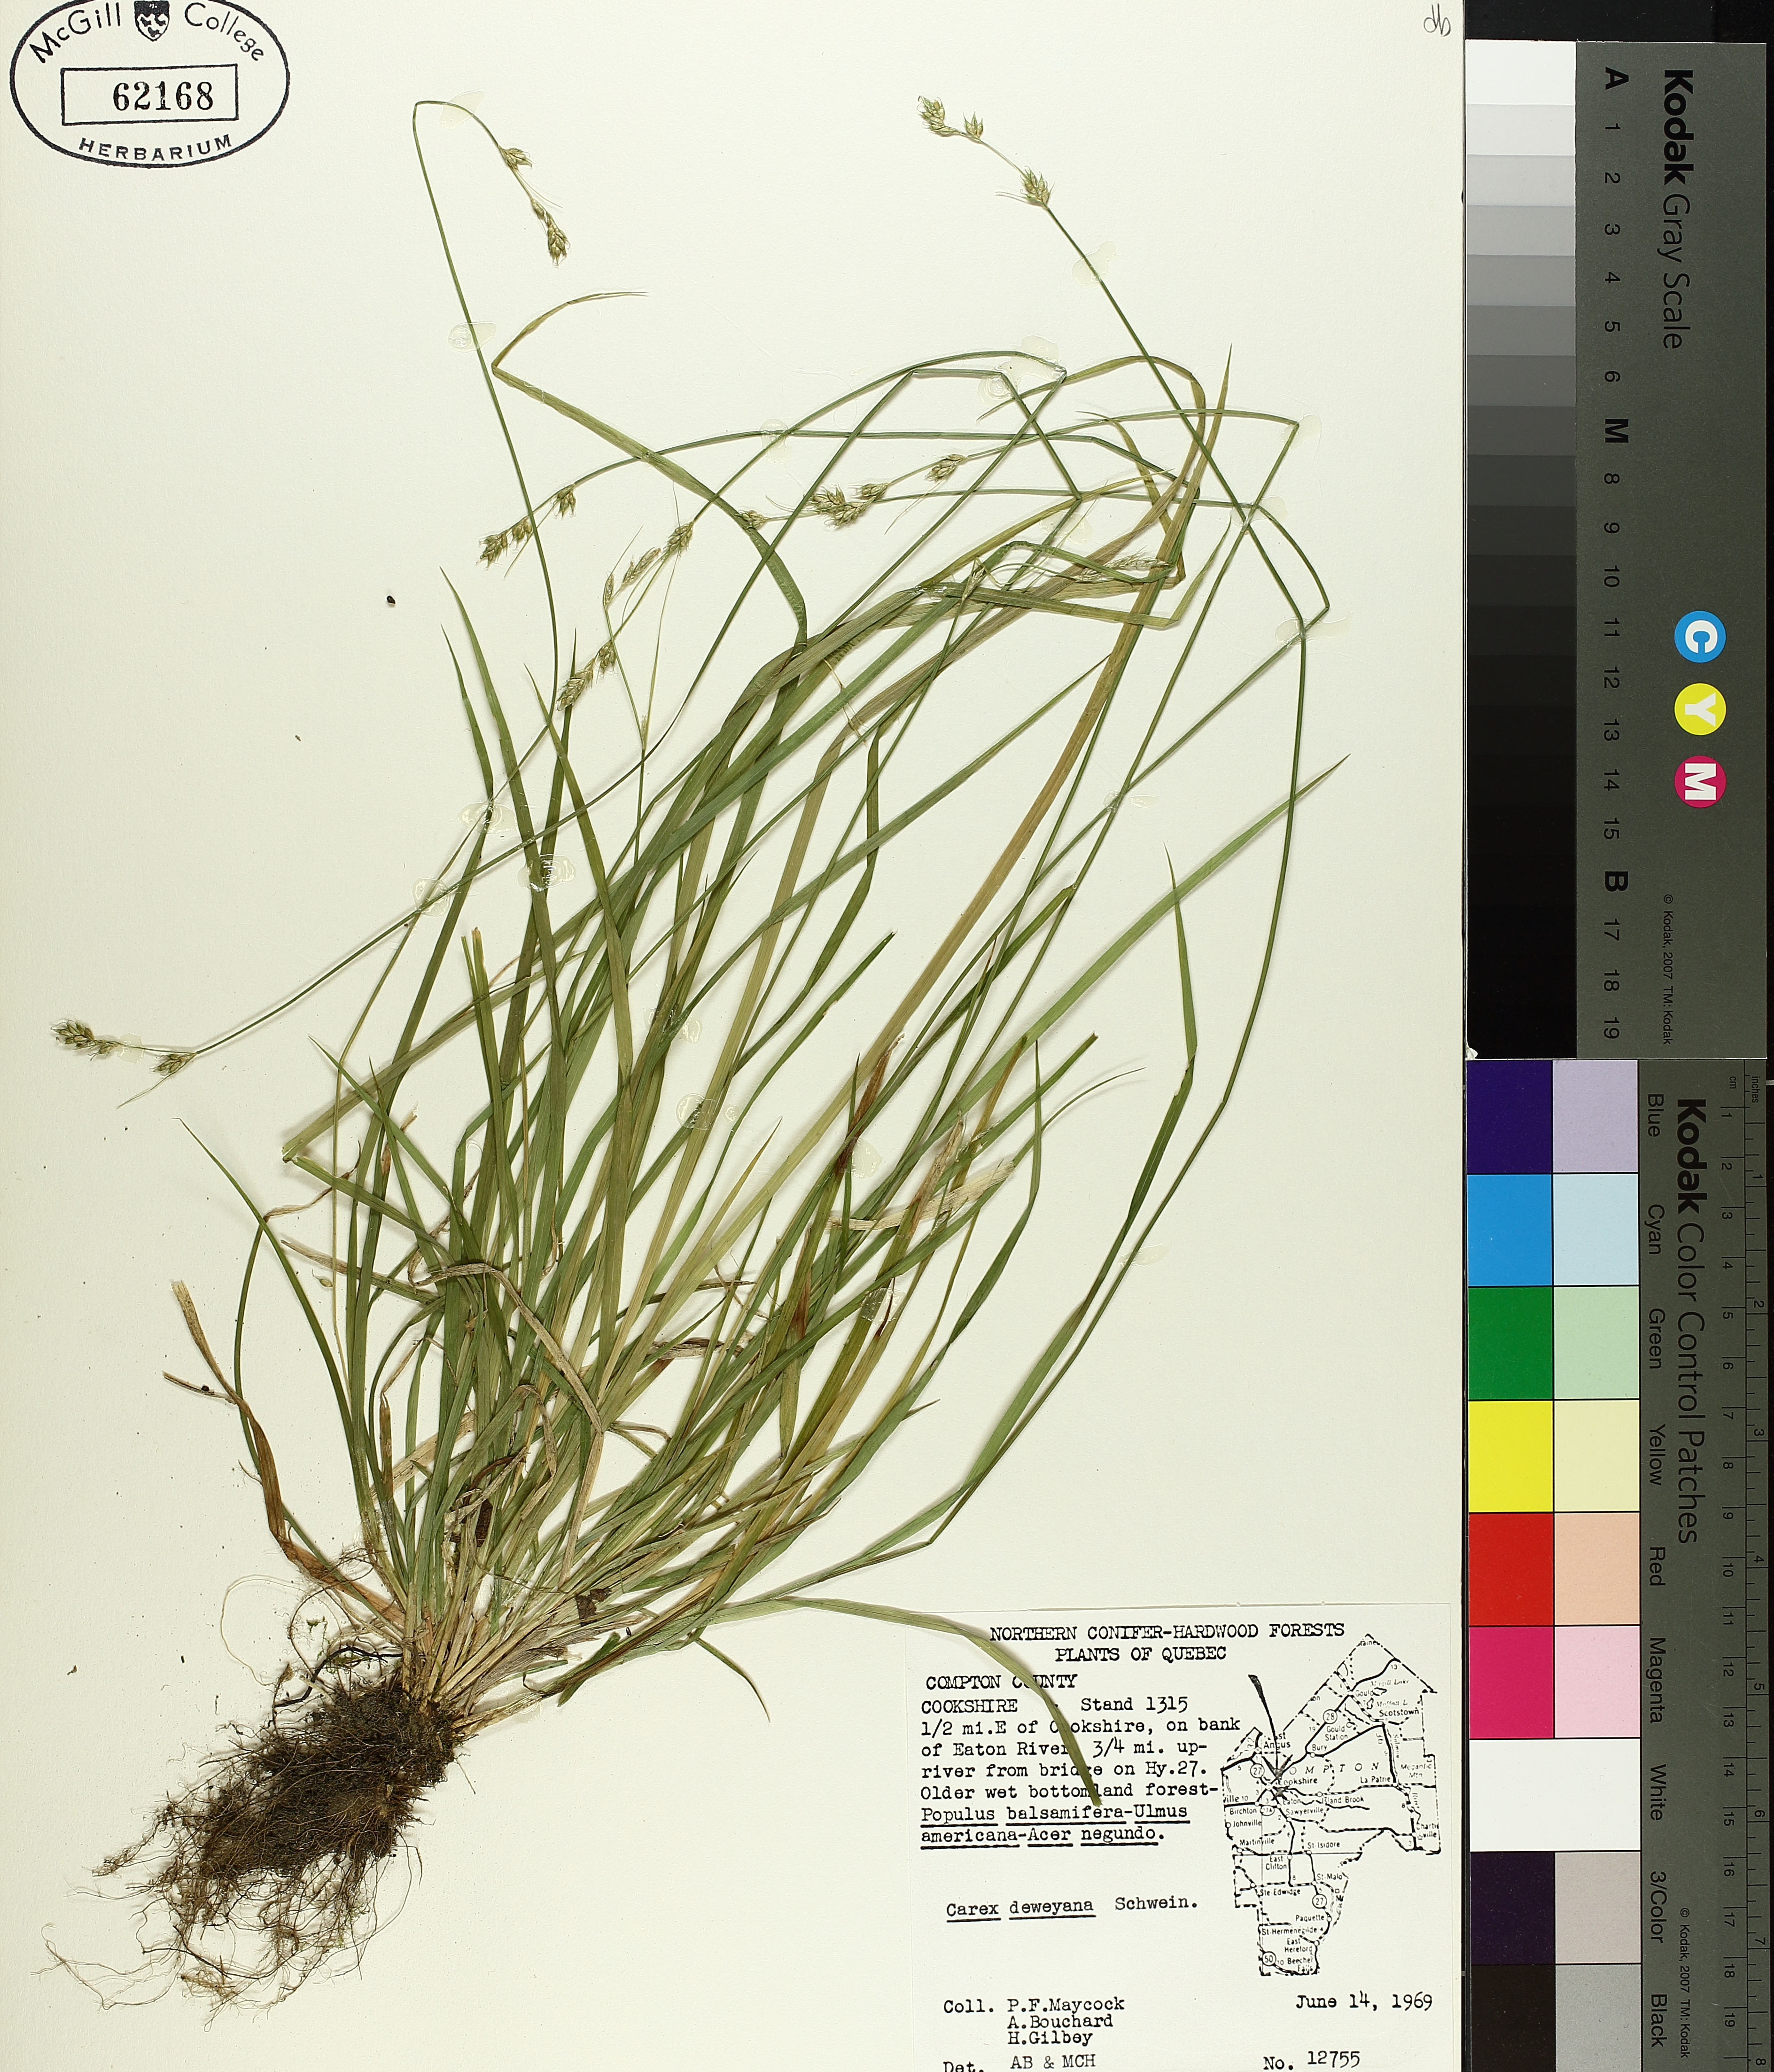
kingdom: Plantae
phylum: Tracheophyta
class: Liliopsida
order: Poales
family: Cyperaceae
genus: Carex
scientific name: Carex deweyana
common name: Dewey's sedge
